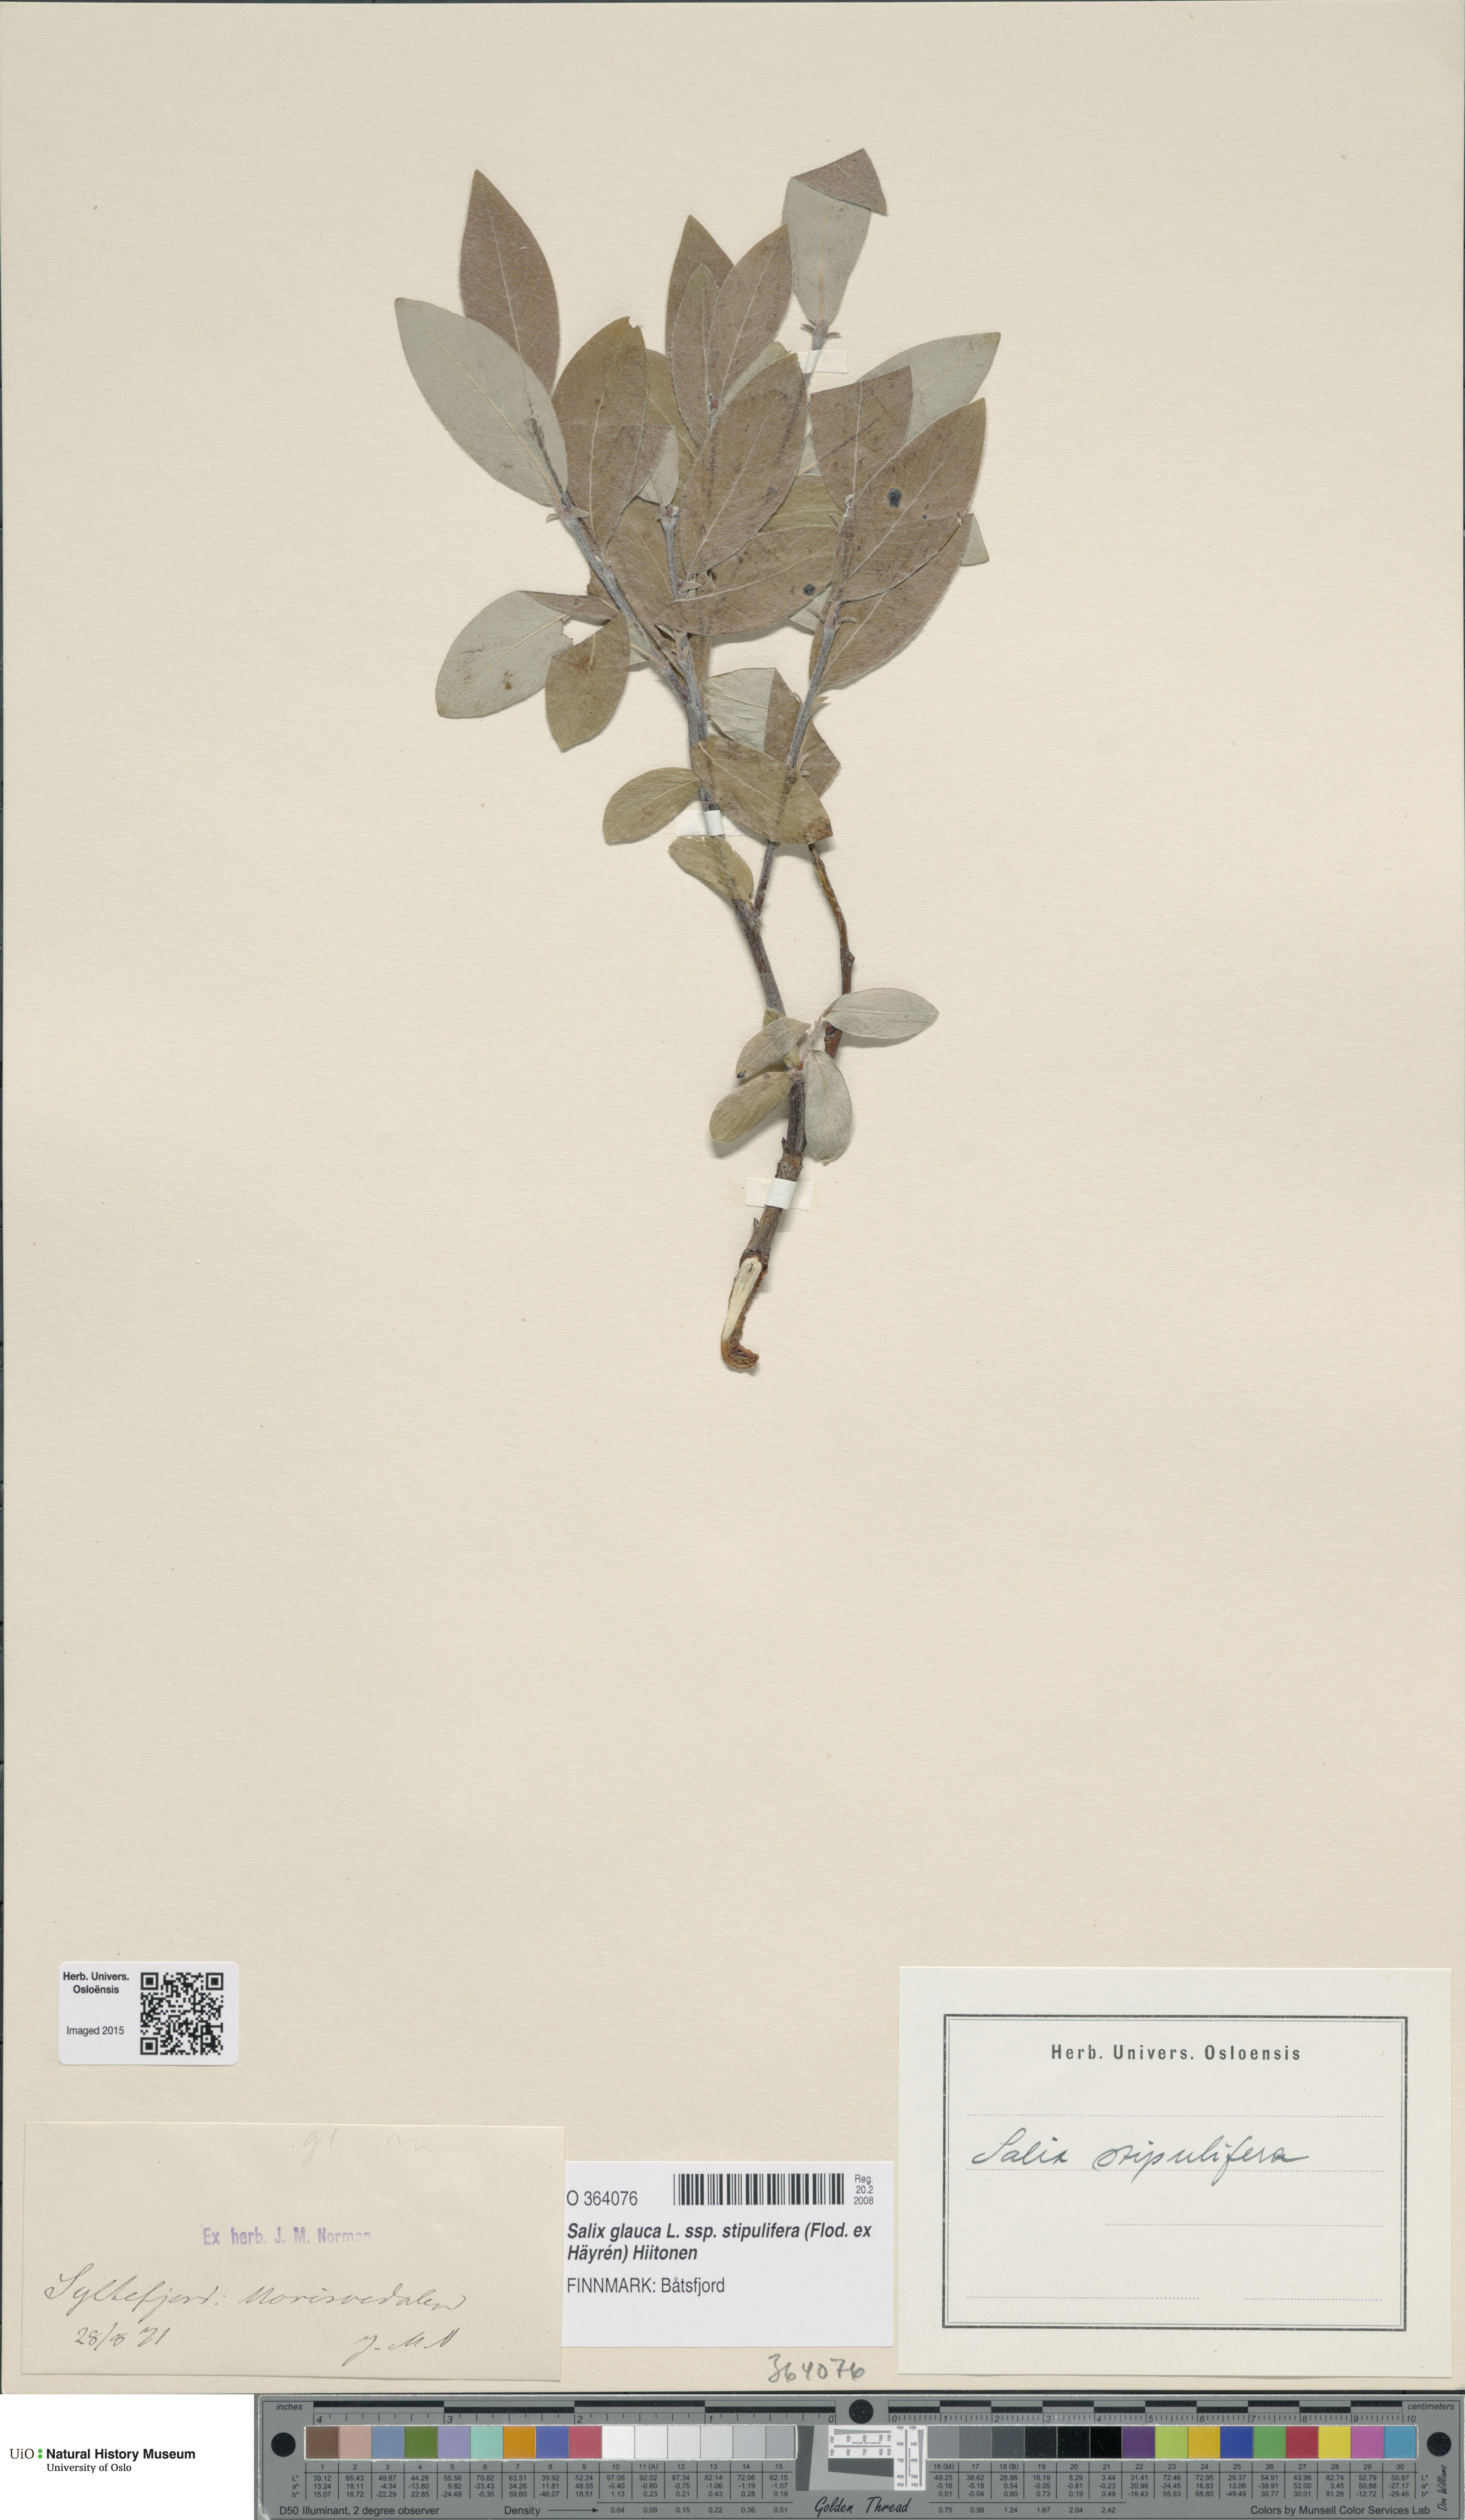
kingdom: Plantae
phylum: Tracheophyta
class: Magnoliopsida
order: Malpighiales
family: Salicaceae
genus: Salix
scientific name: Salix glauca
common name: Glaucous willow
